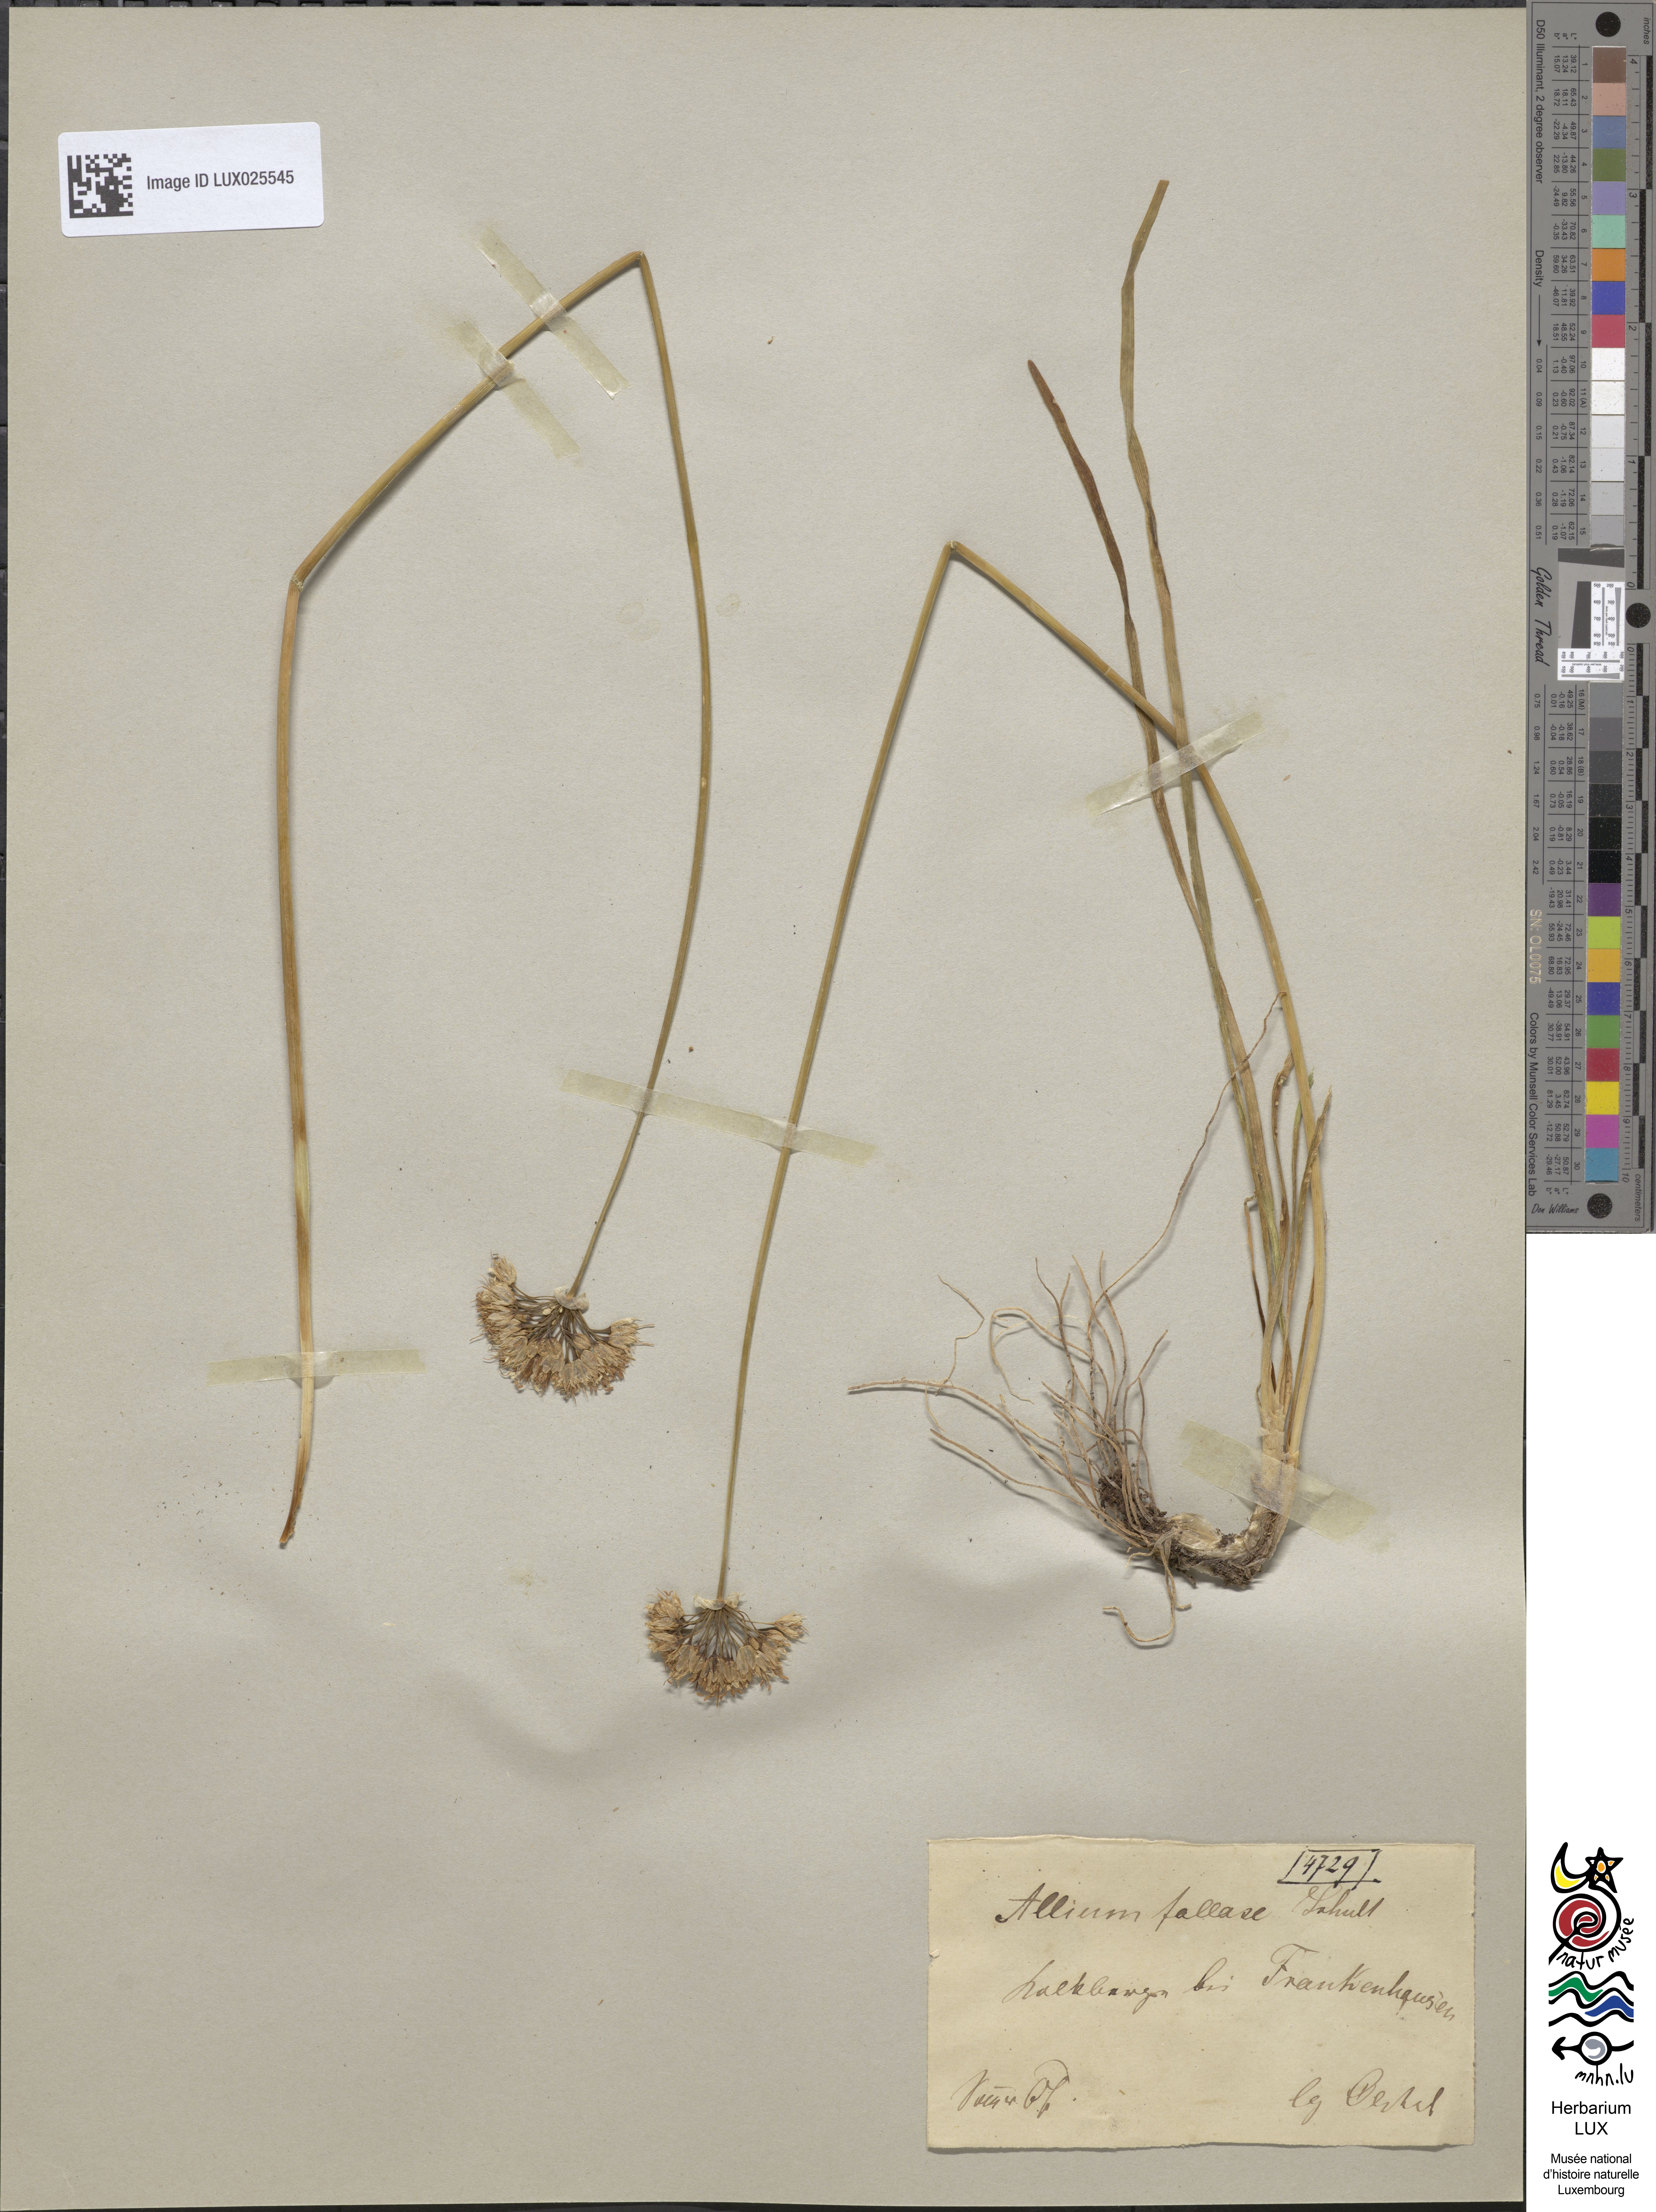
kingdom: Plantae
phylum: Tracheophyta
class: Liliopsida
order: Asparagales
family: Amaryllidaceae
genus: Allium
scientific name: Allium lusitanicum
